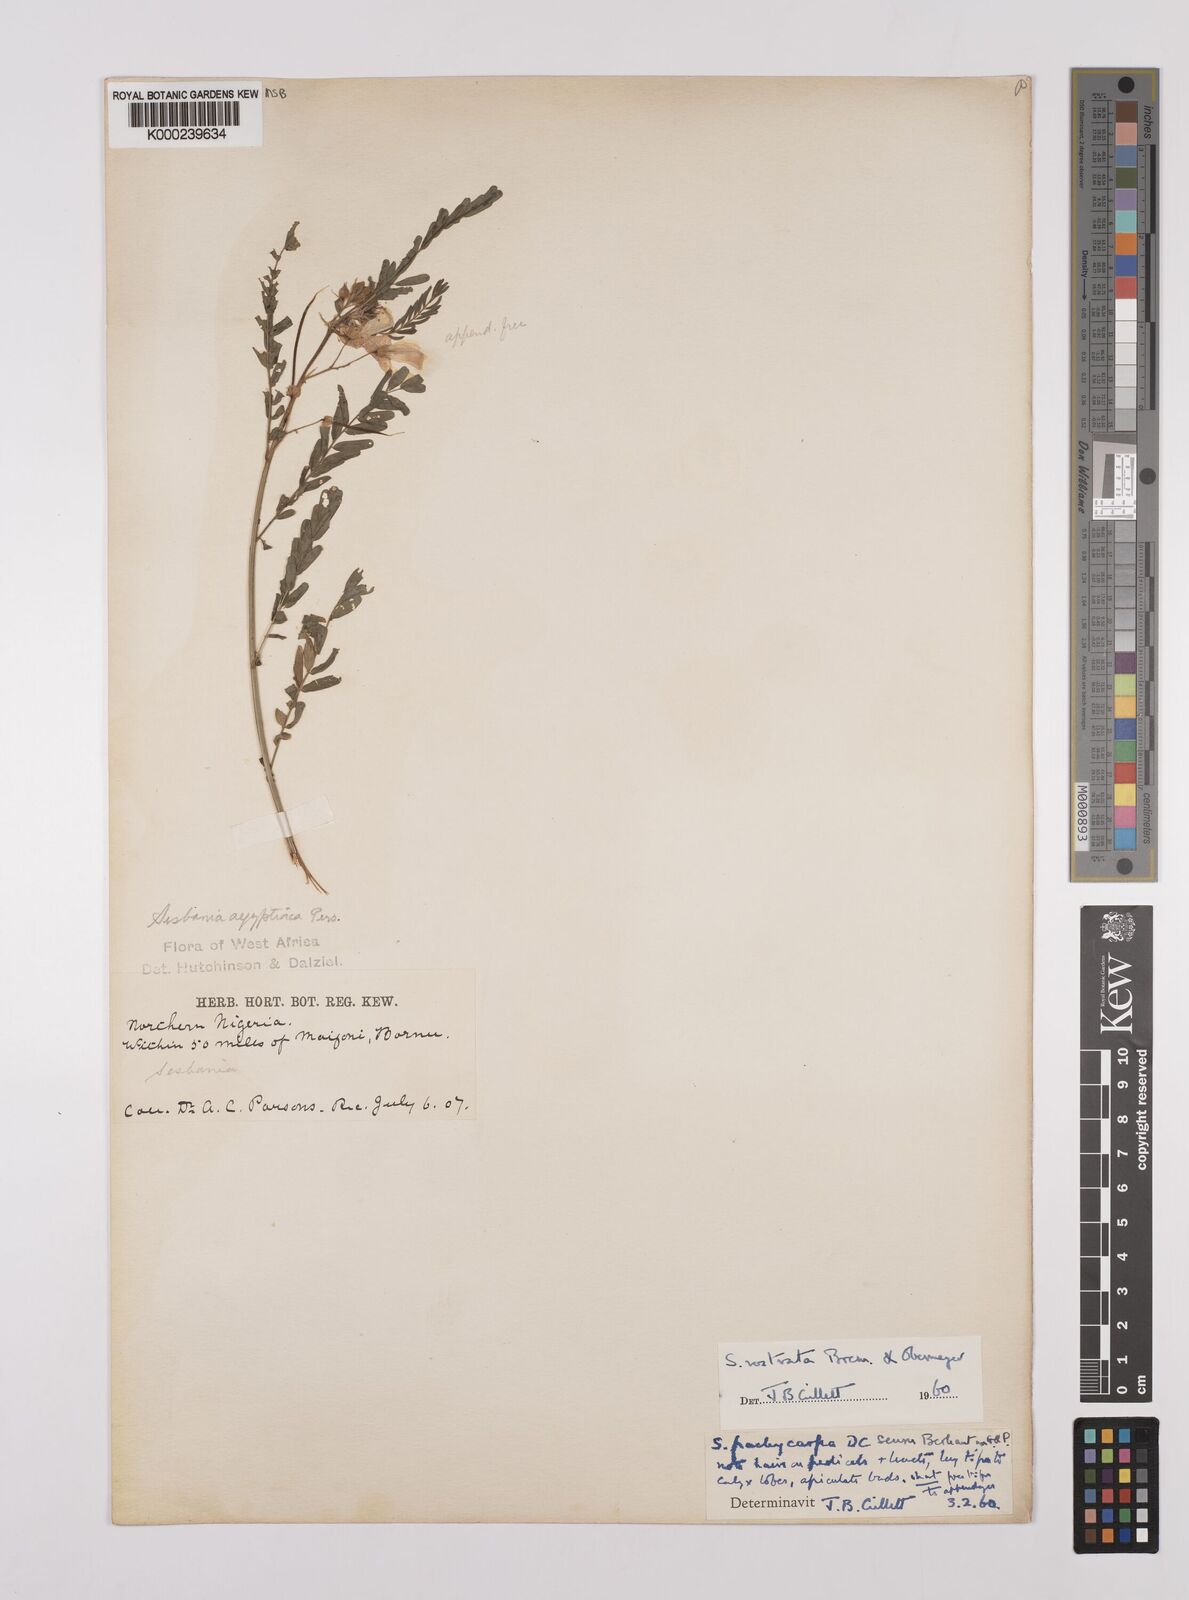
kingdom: Plantae
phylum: Tracheophyta
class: Magnoliopsida
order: Fabales
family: Fabaceae
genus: Sesbania
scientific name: Sesbania rostrata
